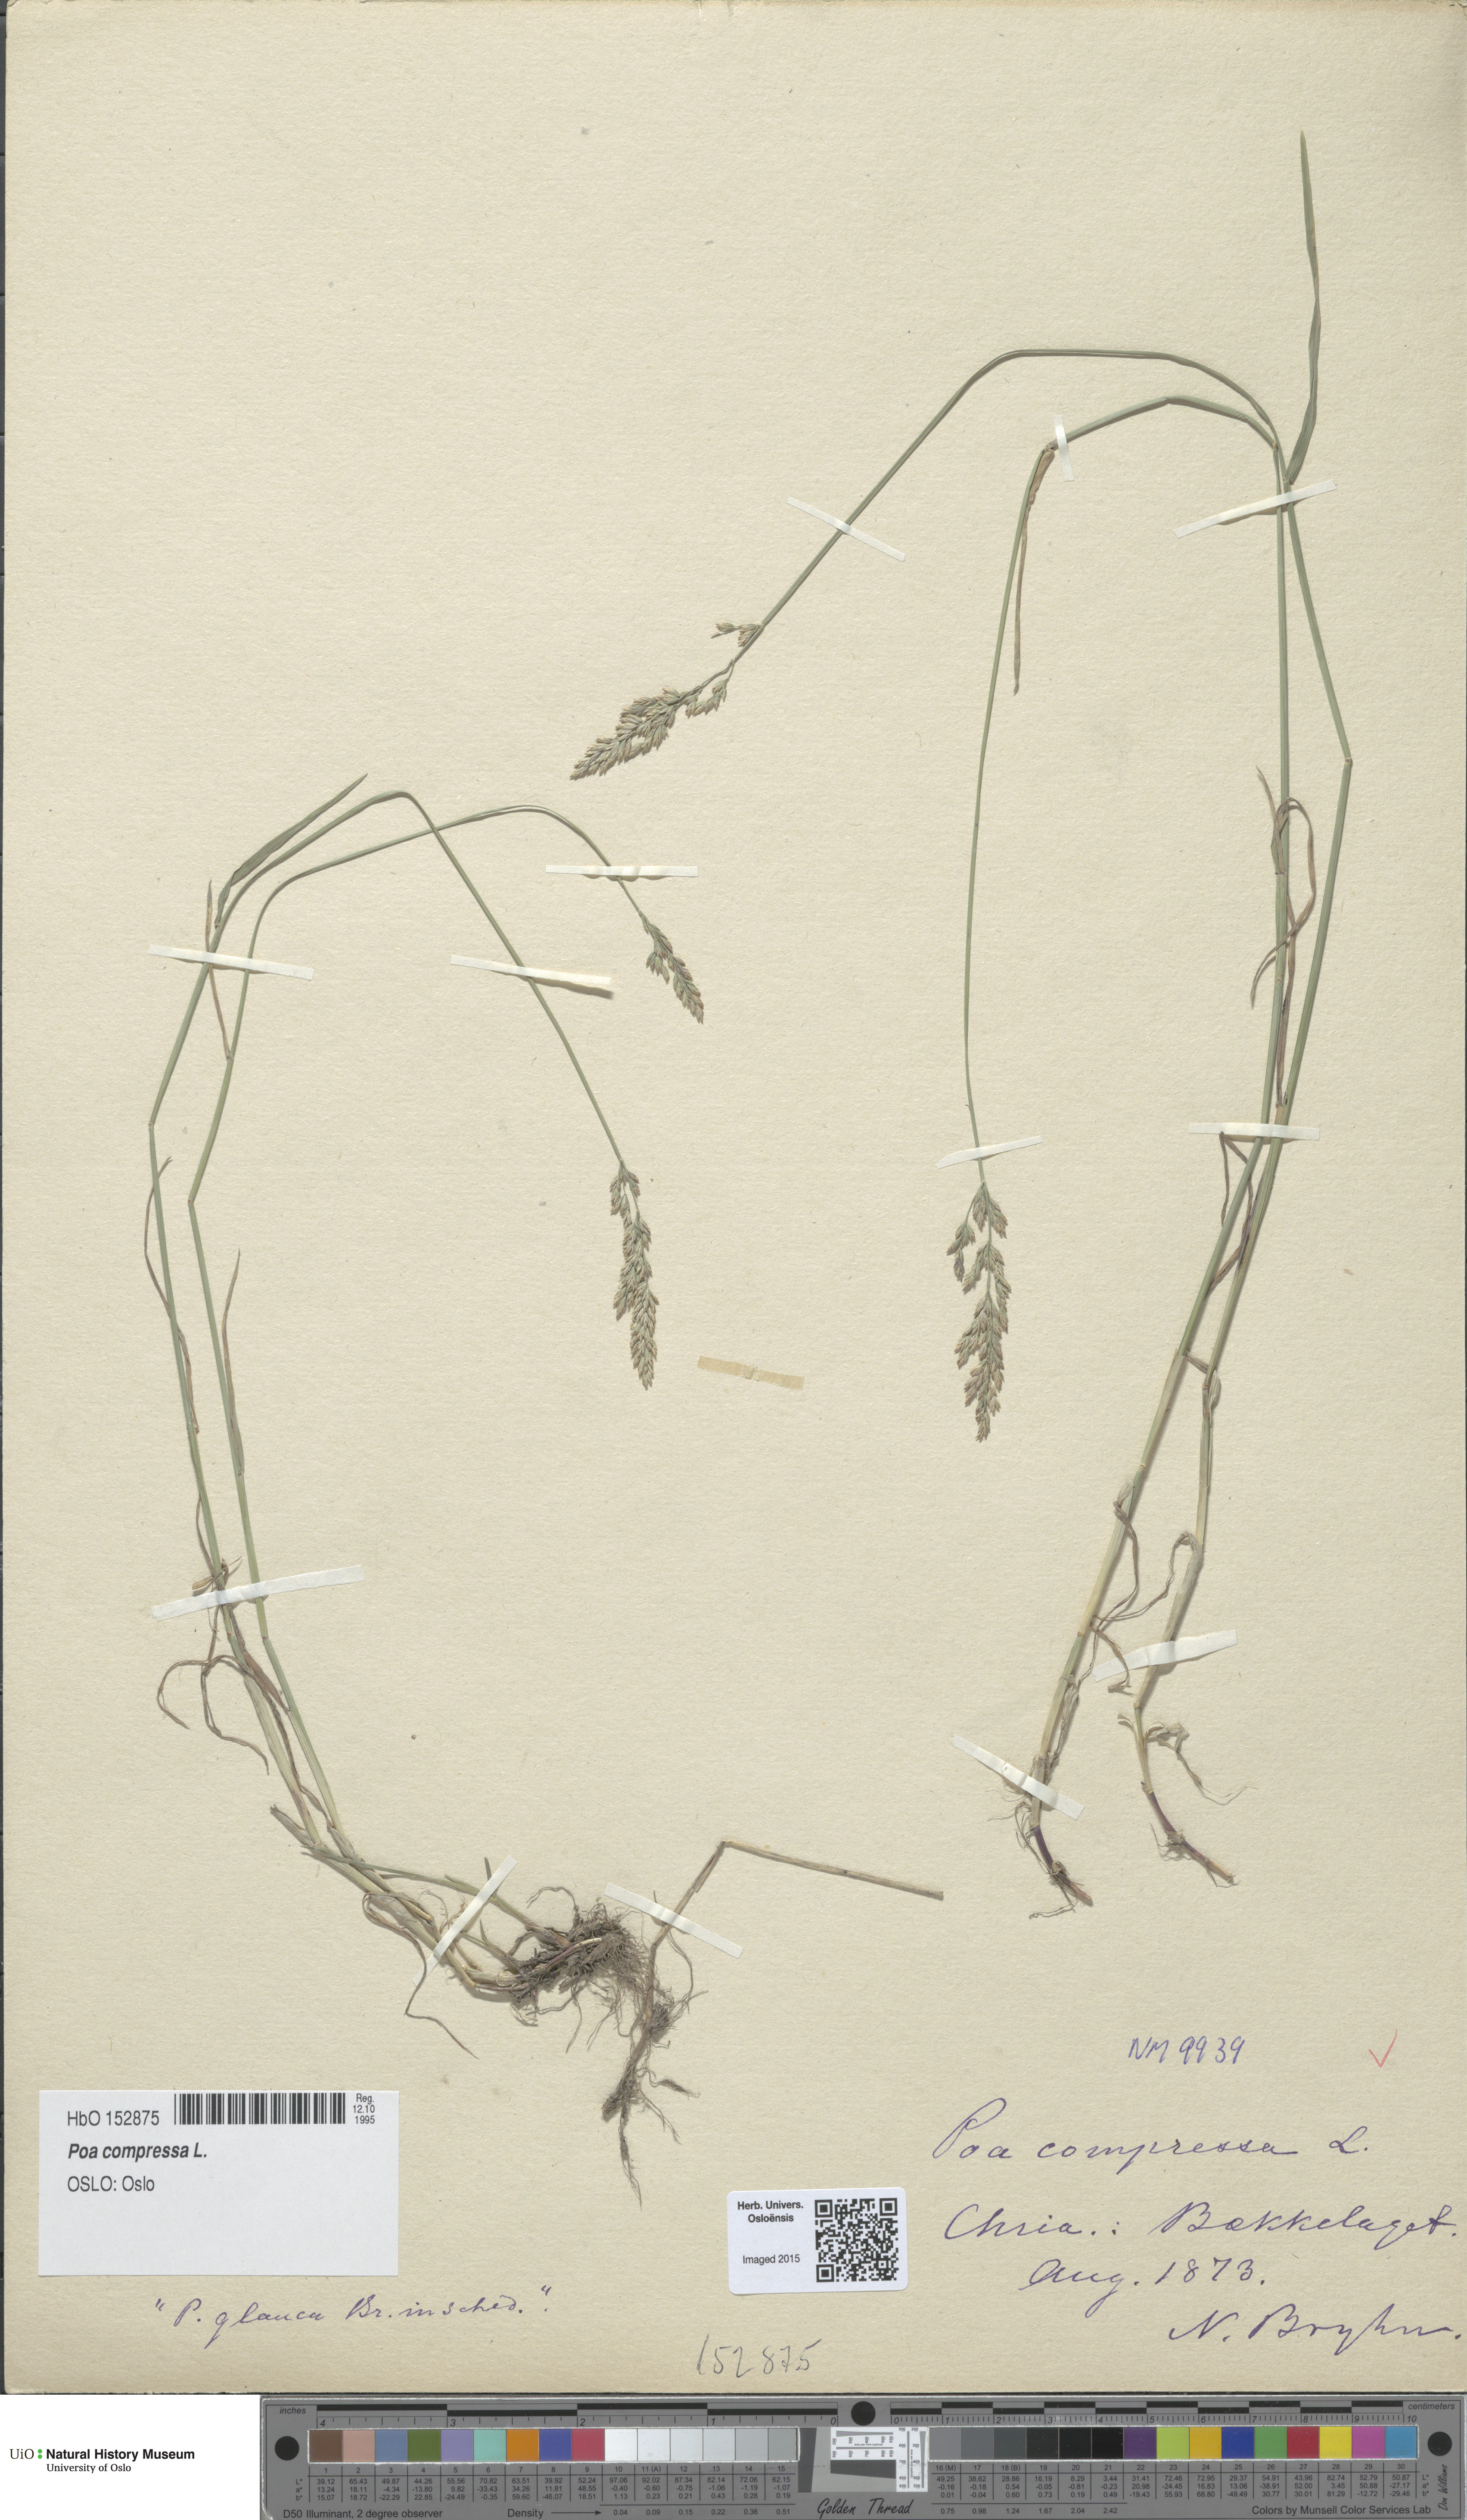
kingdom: Plantae
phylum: Tracheophyta
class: Liliopsida
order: Poales
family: Poaceae
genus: Poa
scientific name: Poa compressa
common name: Canada bluegrass
